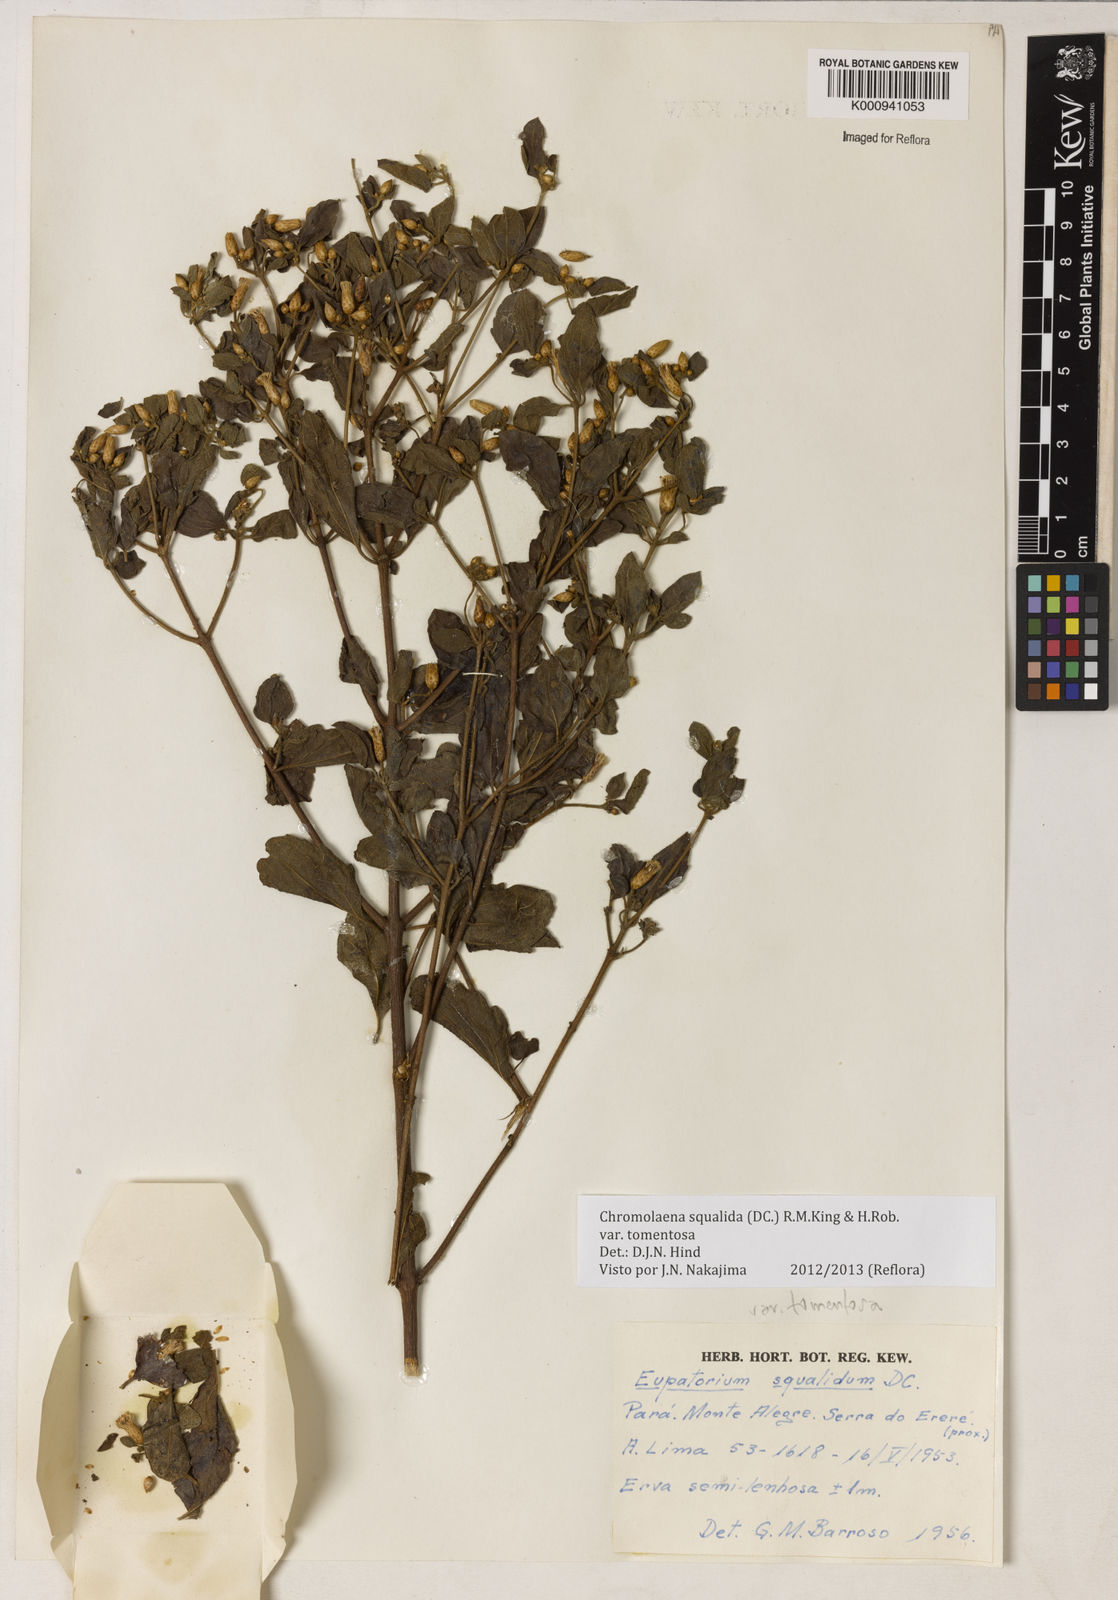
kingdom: Plantae
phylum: Tracheophyta
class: Magnoliopsida
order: Asterales
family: Asteraceae
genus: Chromolaena
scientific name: Chromolaena squalida
